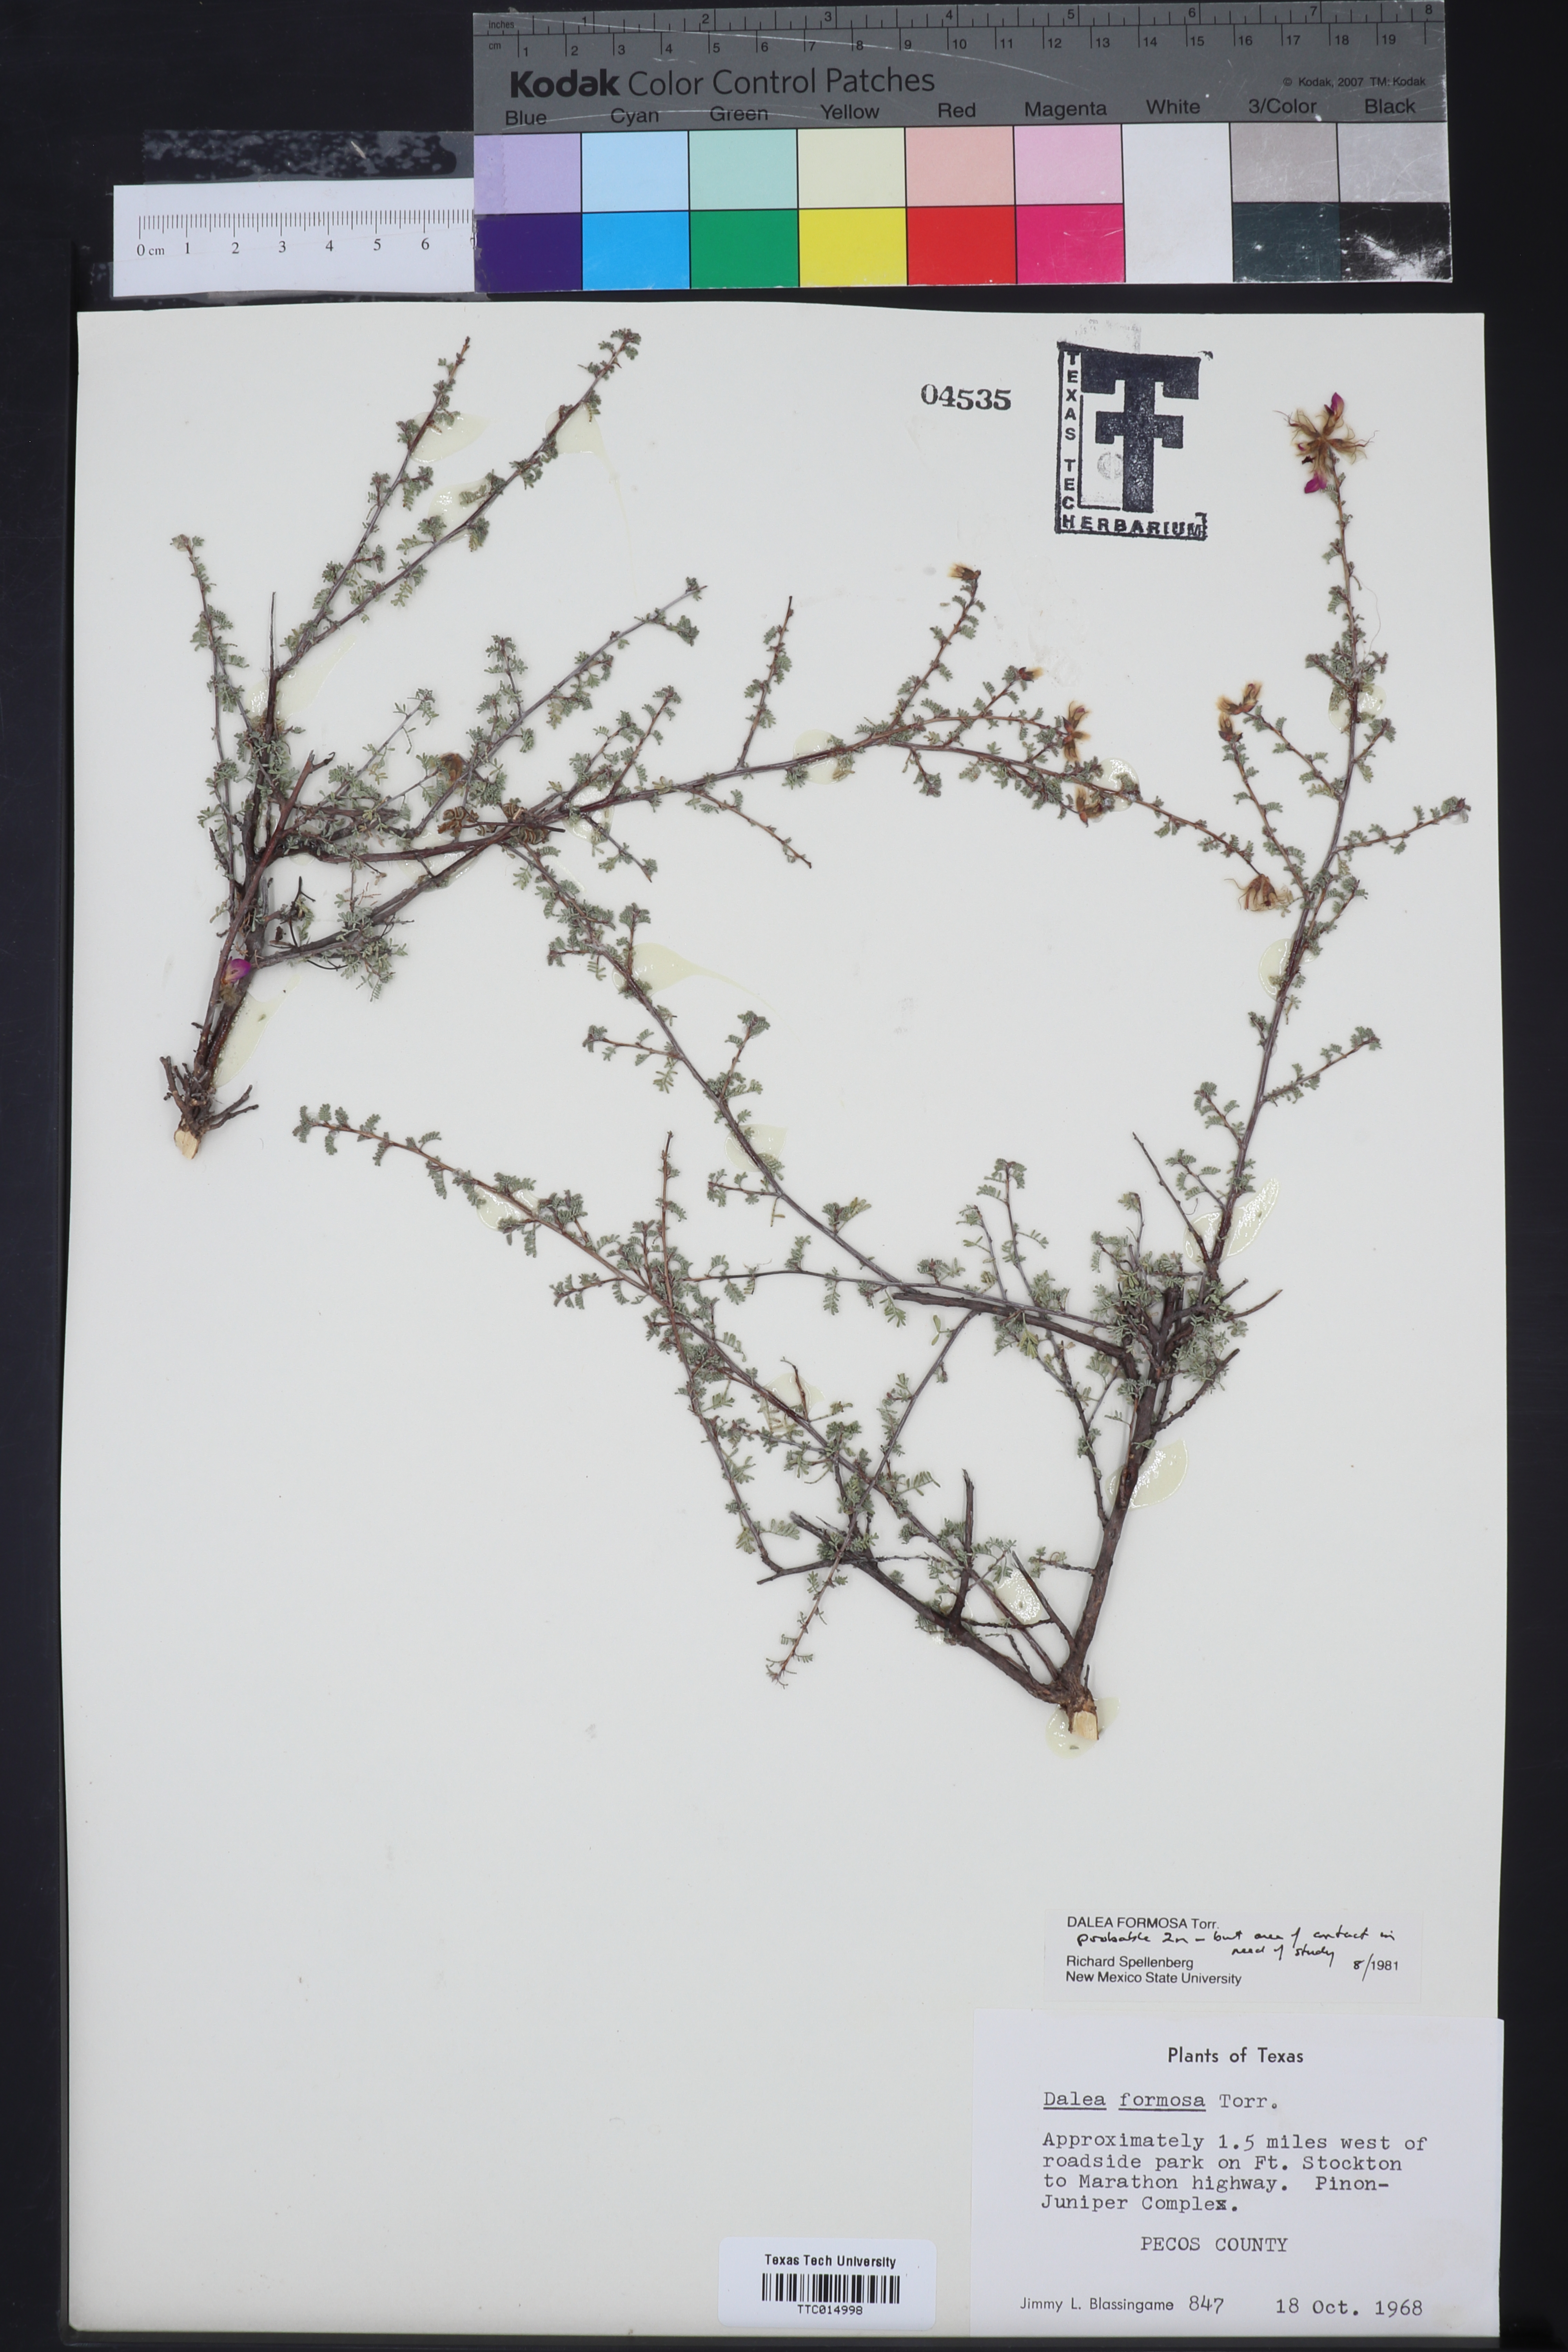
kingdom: Plantae
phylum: Tracheophyta
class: Magnoliopsida
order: Fabales
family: Fabaceae
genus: Dalea
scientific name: Dalea formosa
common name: Feather-plume dalea
